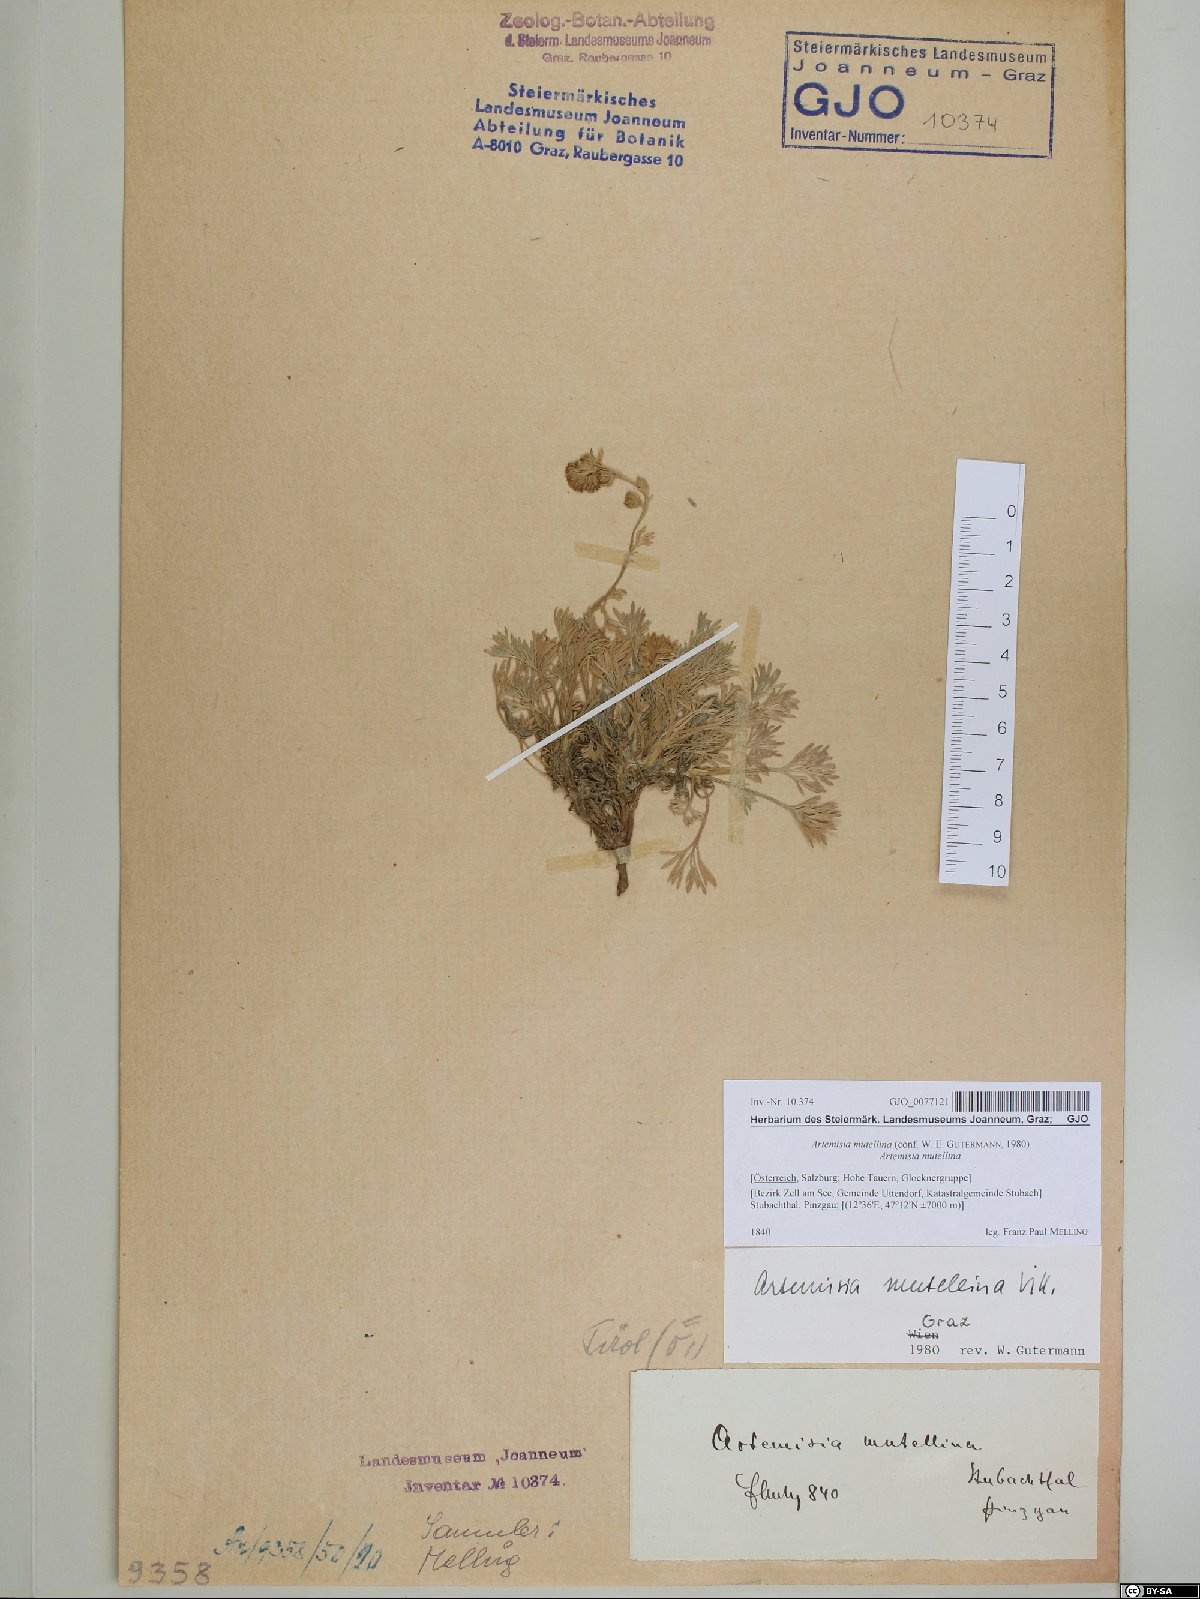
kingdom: Plantae
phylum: Tracheophyta
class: Magnoliopsida
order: Asterales
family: Asteraceae
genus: Artemisia
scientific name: Artemisia mutellina
